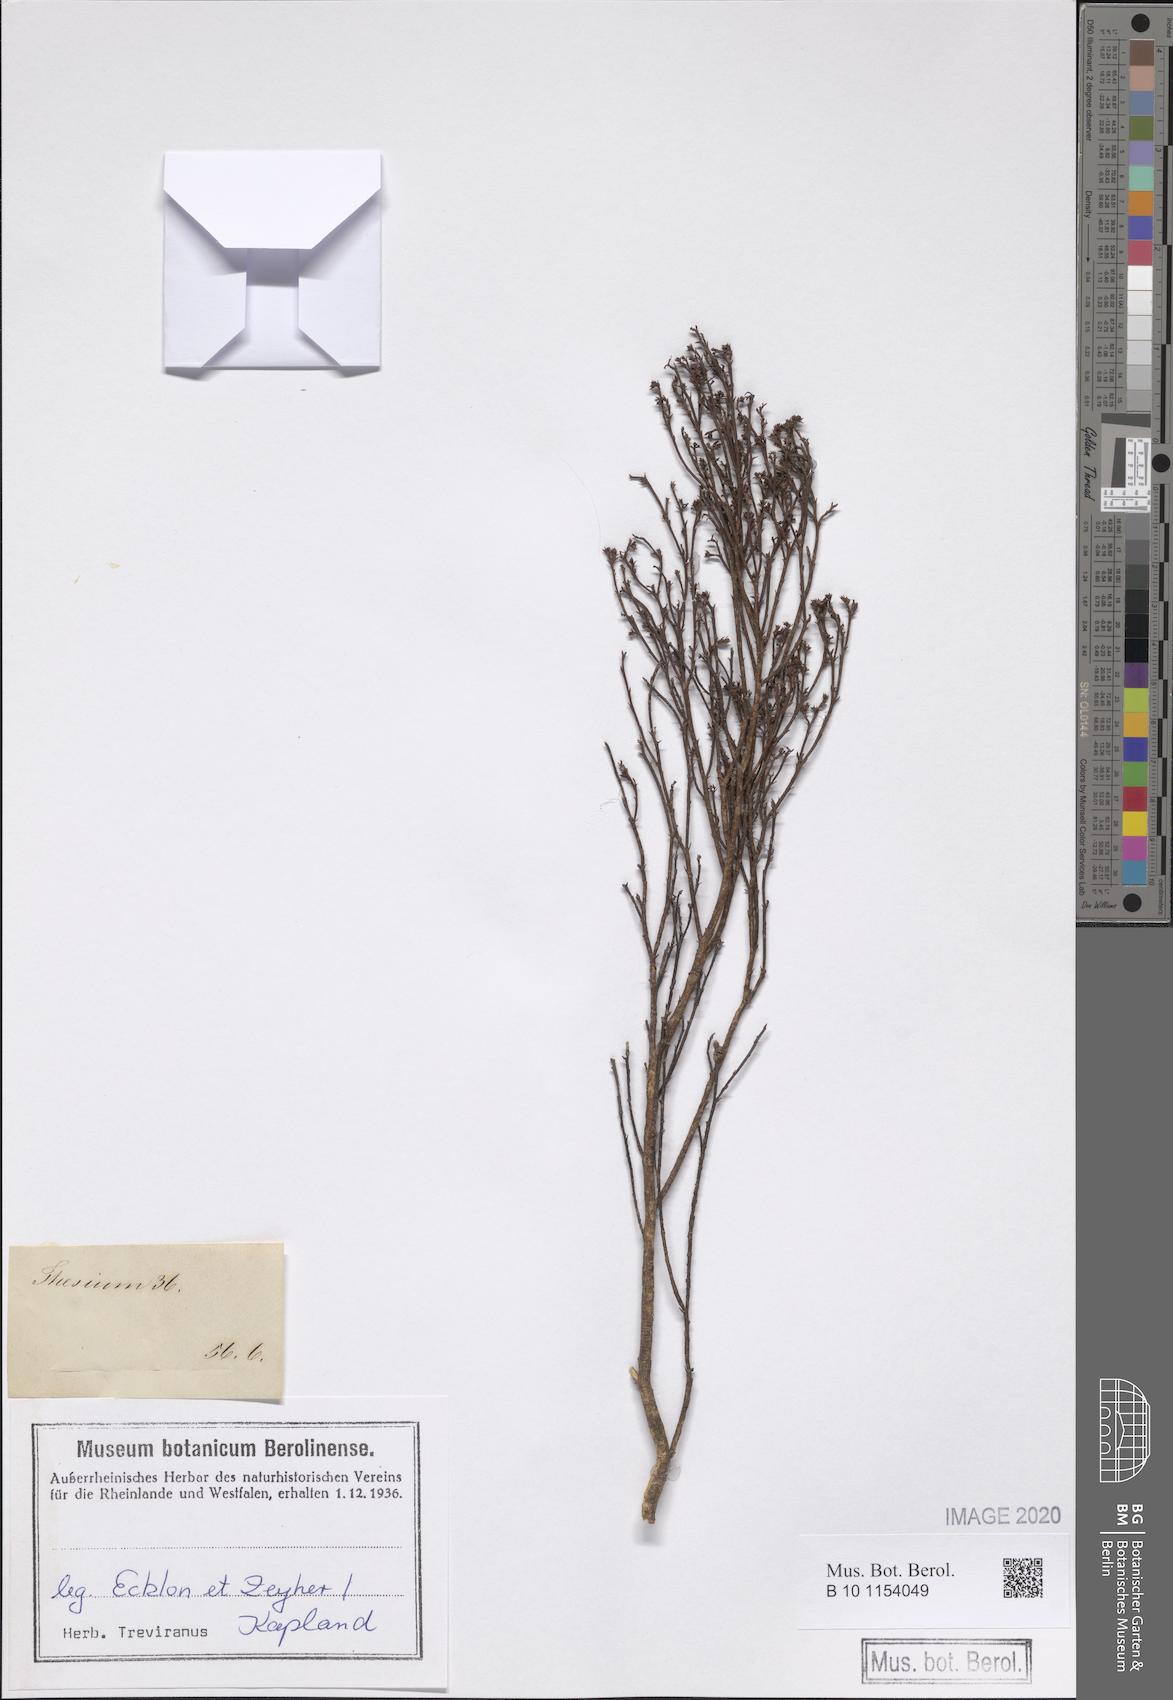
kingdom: Plantae
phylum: Tracheophyta
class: Magnoliopsida
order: Santalales
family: Thesiaceae
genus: Thesium
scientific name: Thesium virgatum
